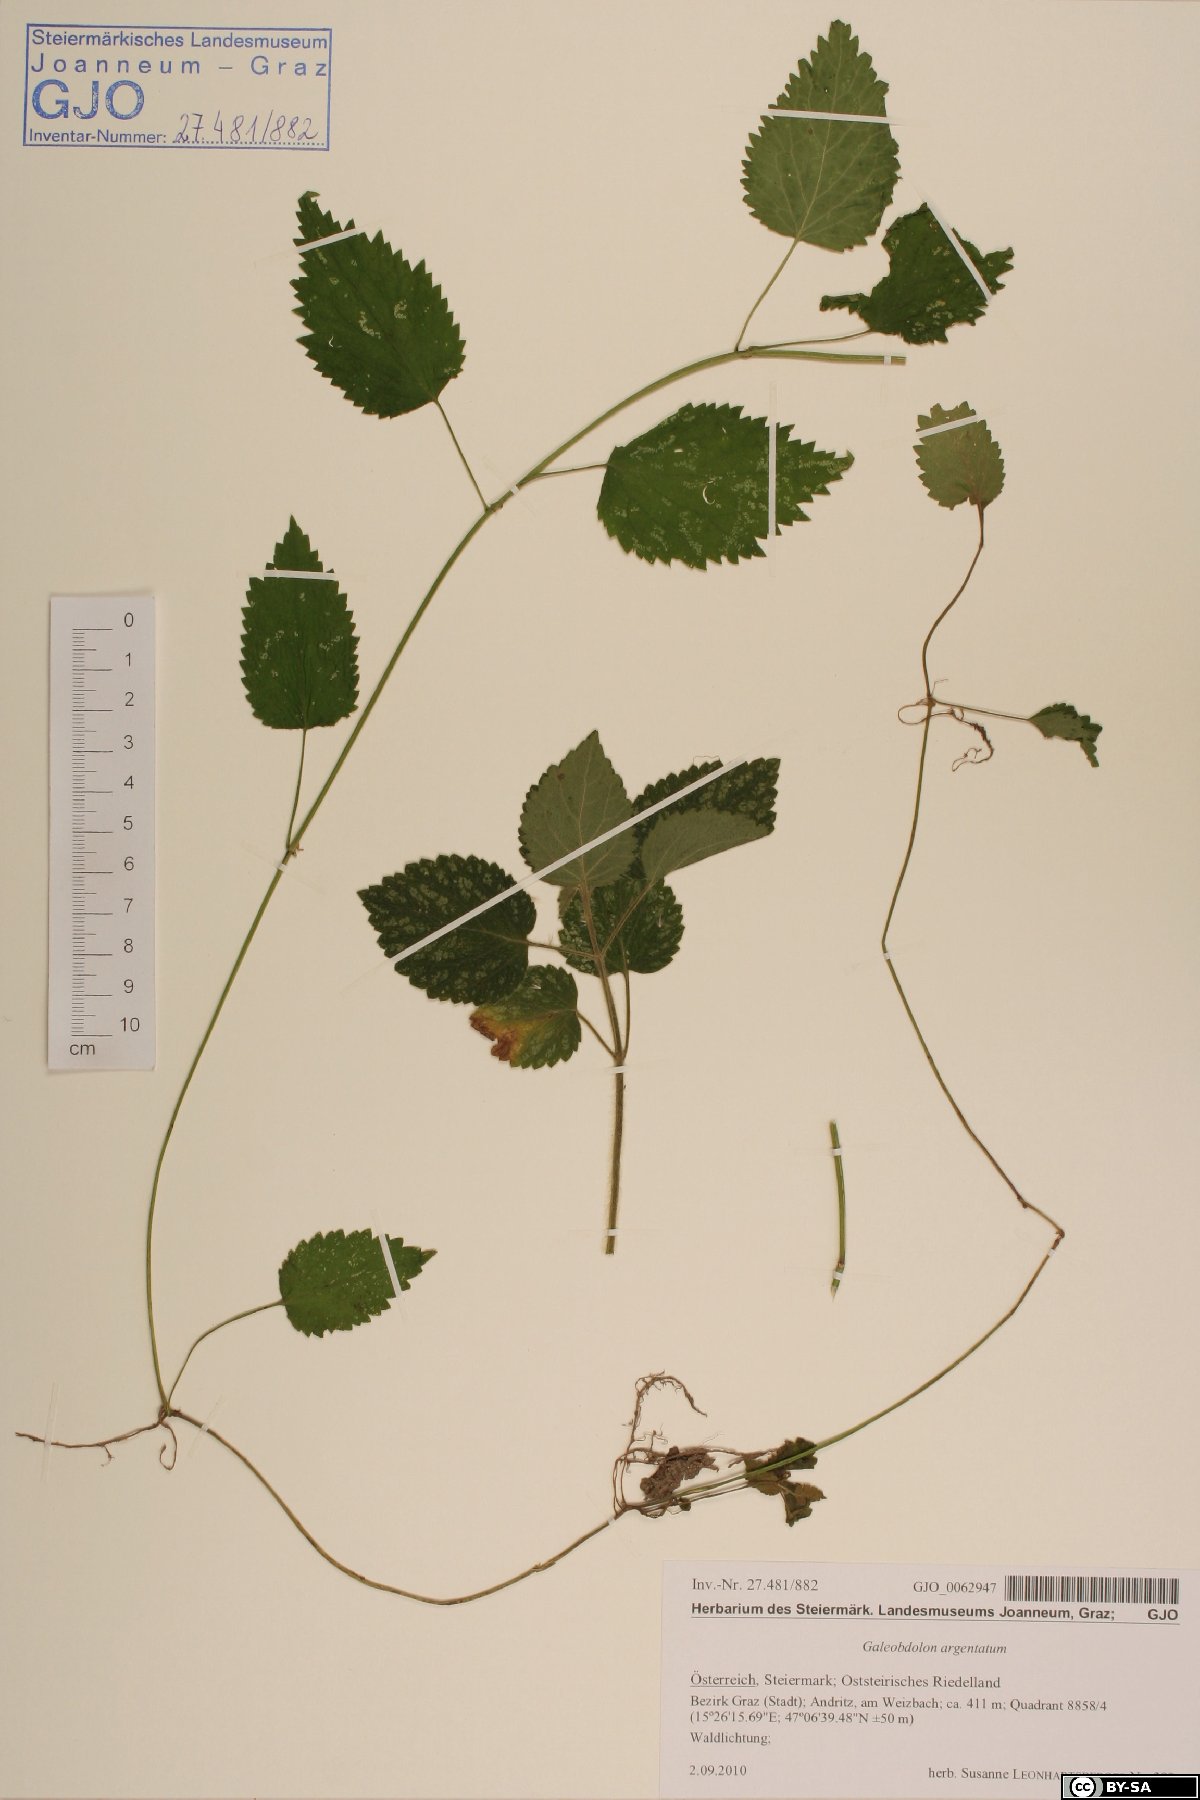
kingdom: Plantae
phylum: Tracheophyta
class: Magnoliopsida
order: Lamiales
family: Lamiaceae
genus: Lamium
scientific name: Lamium galeobdolon
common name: Yellow archangel
